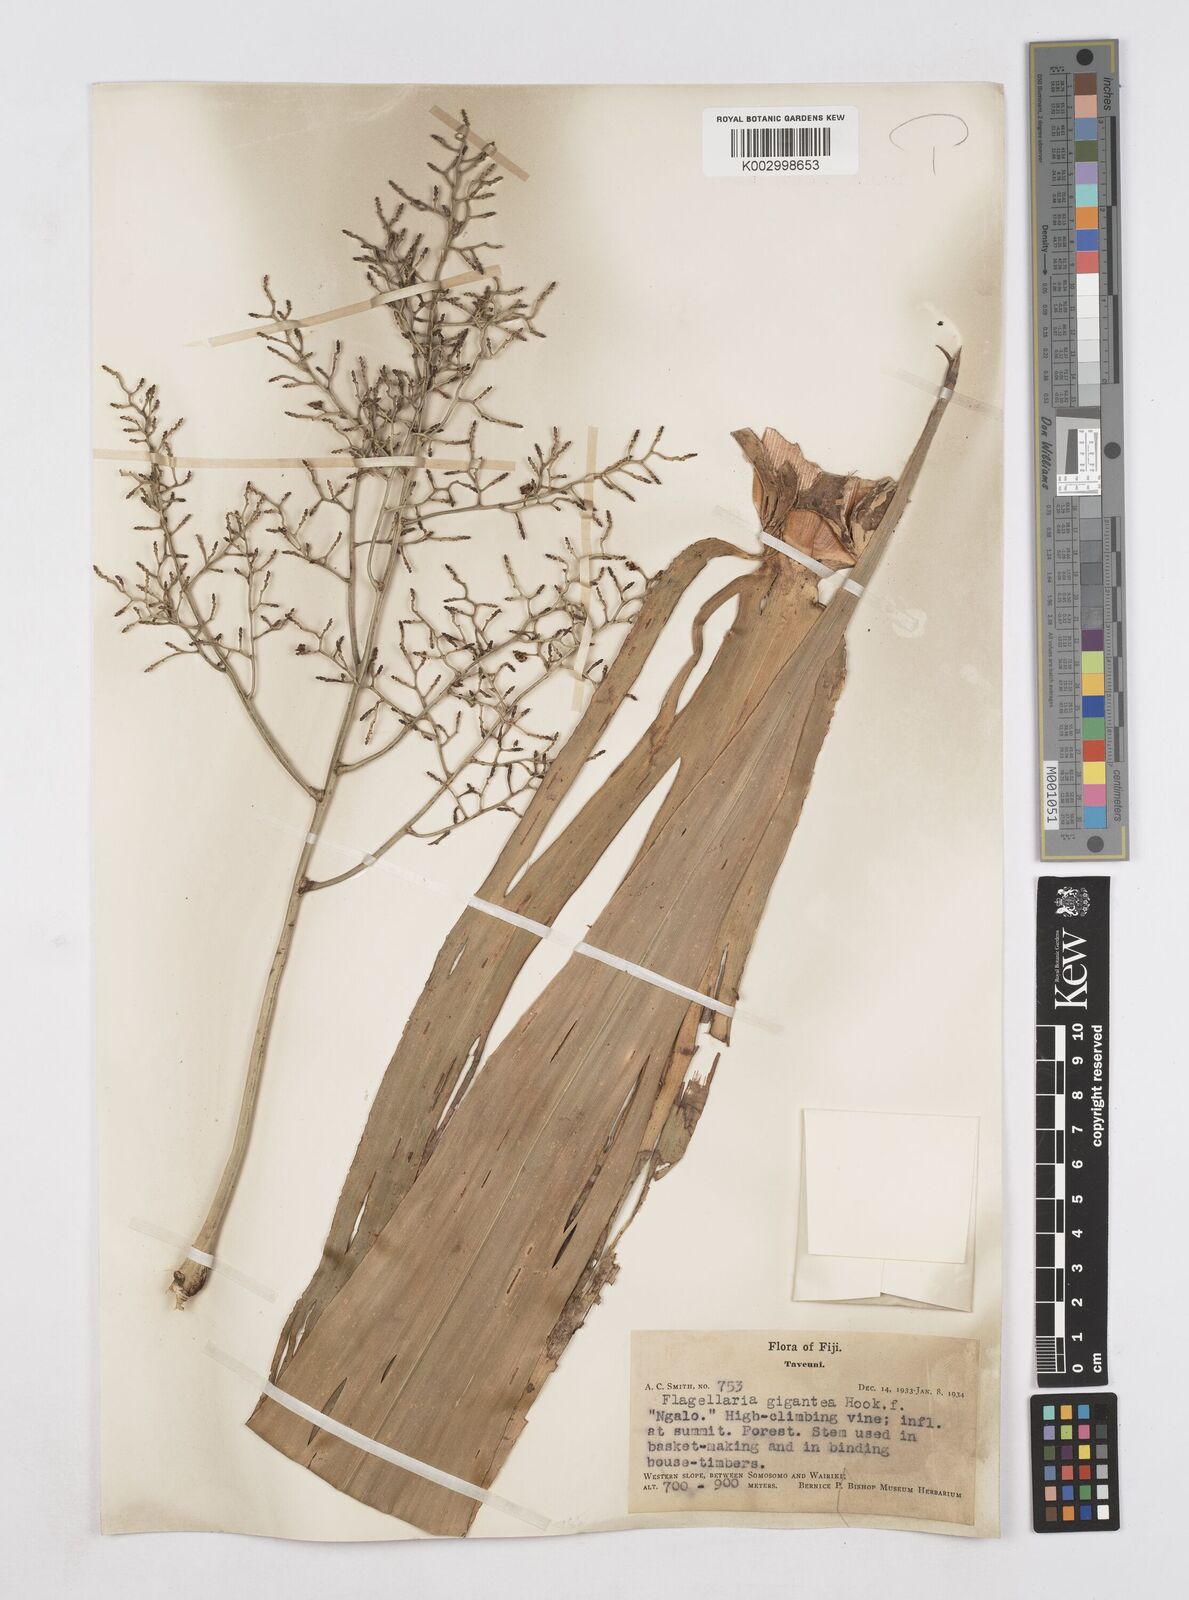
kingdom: Plantae
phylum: Tracheophyta
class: Liliopsida
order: Poales
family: Flagellariaceae
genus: Flagellaria
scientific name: Flagellaria gigantea
